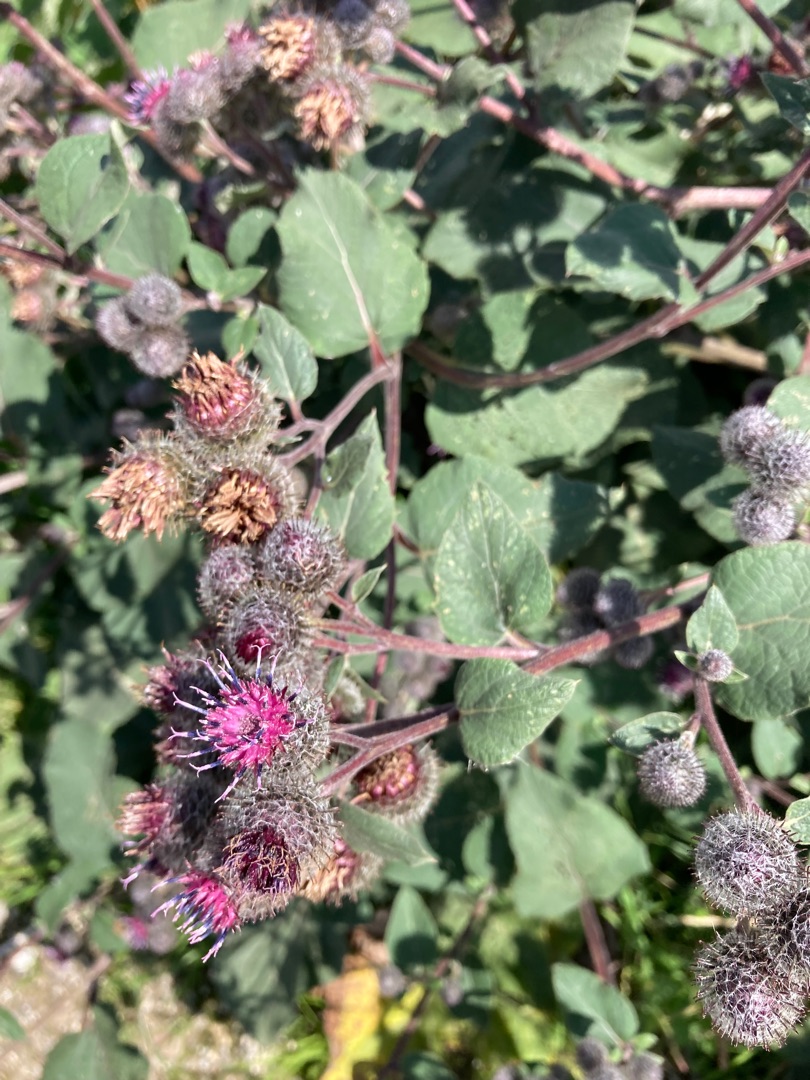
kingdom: Plantae
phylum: Tracheophyta
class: Magnoliopsida
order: Asterales
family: Asteraceae
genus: Arctium
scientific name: Arctium tomentosum
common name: Filtet burre
